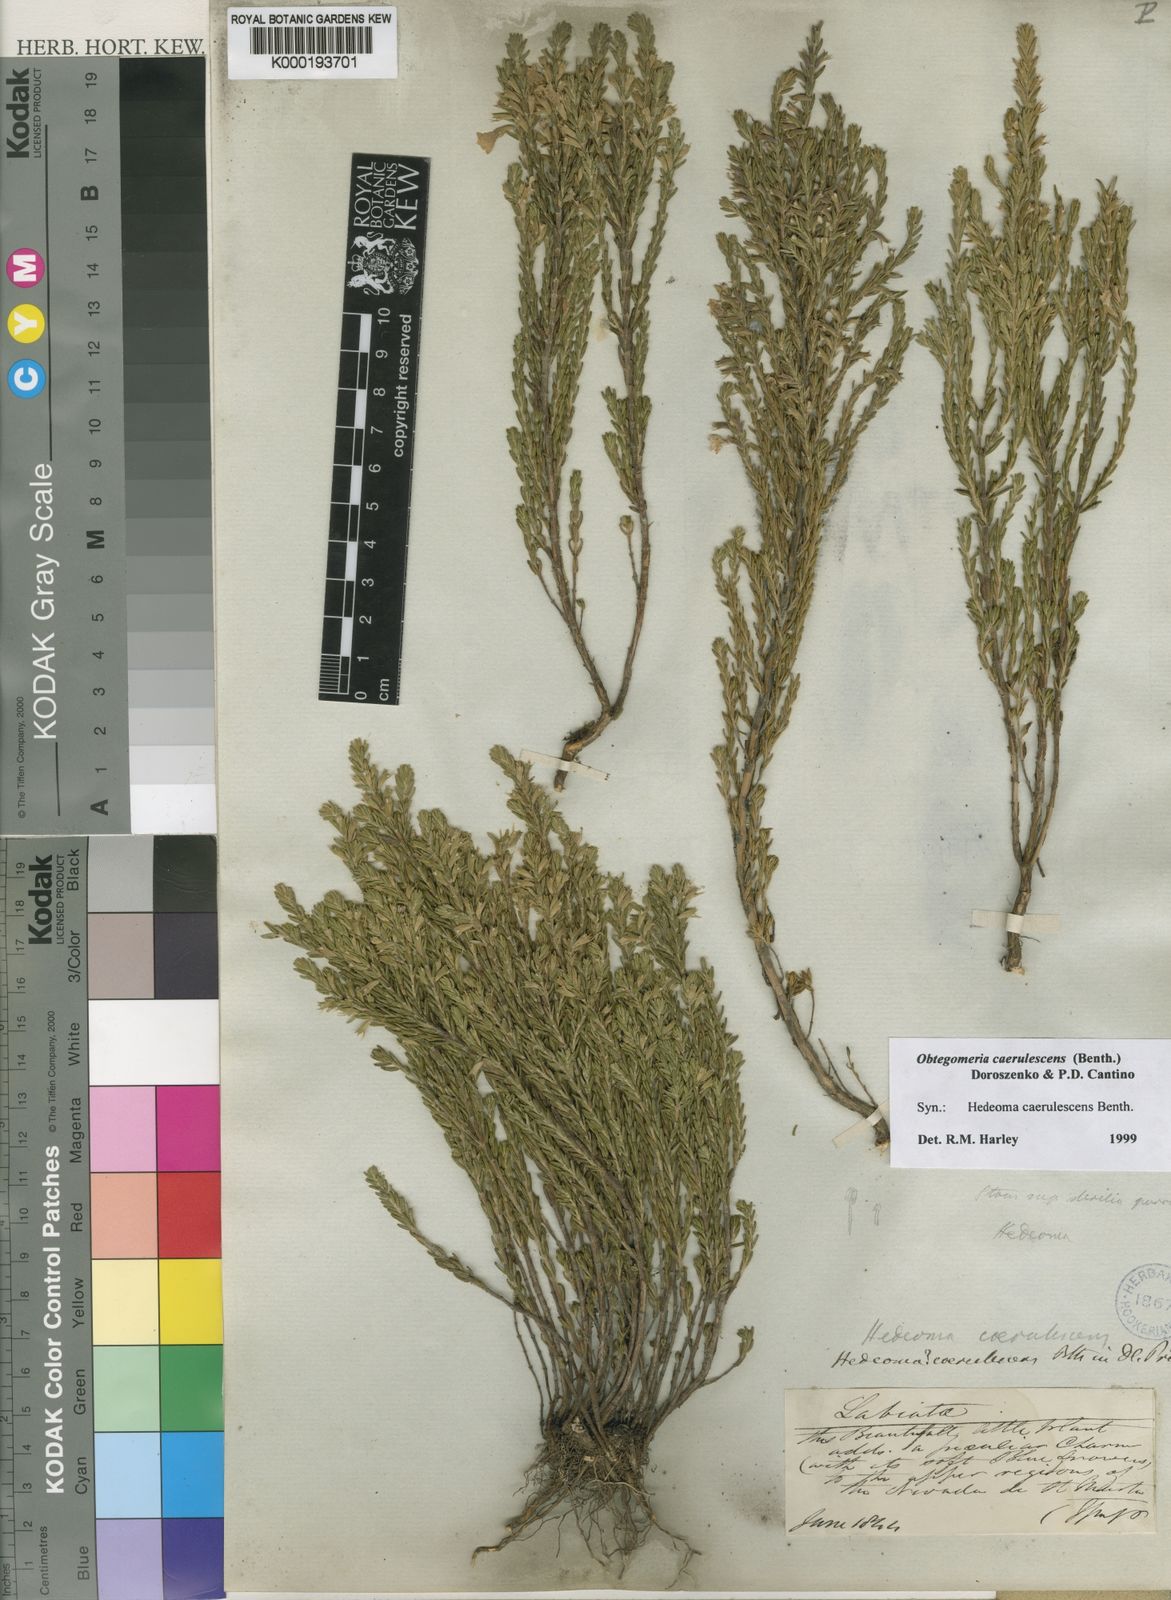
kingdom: Plantae
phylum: Tracheophyta
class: Magnoliopsida
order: Lamiales
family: Lamiaceae
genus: Obtegomeria
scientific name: Obtegomeria caerulescens
